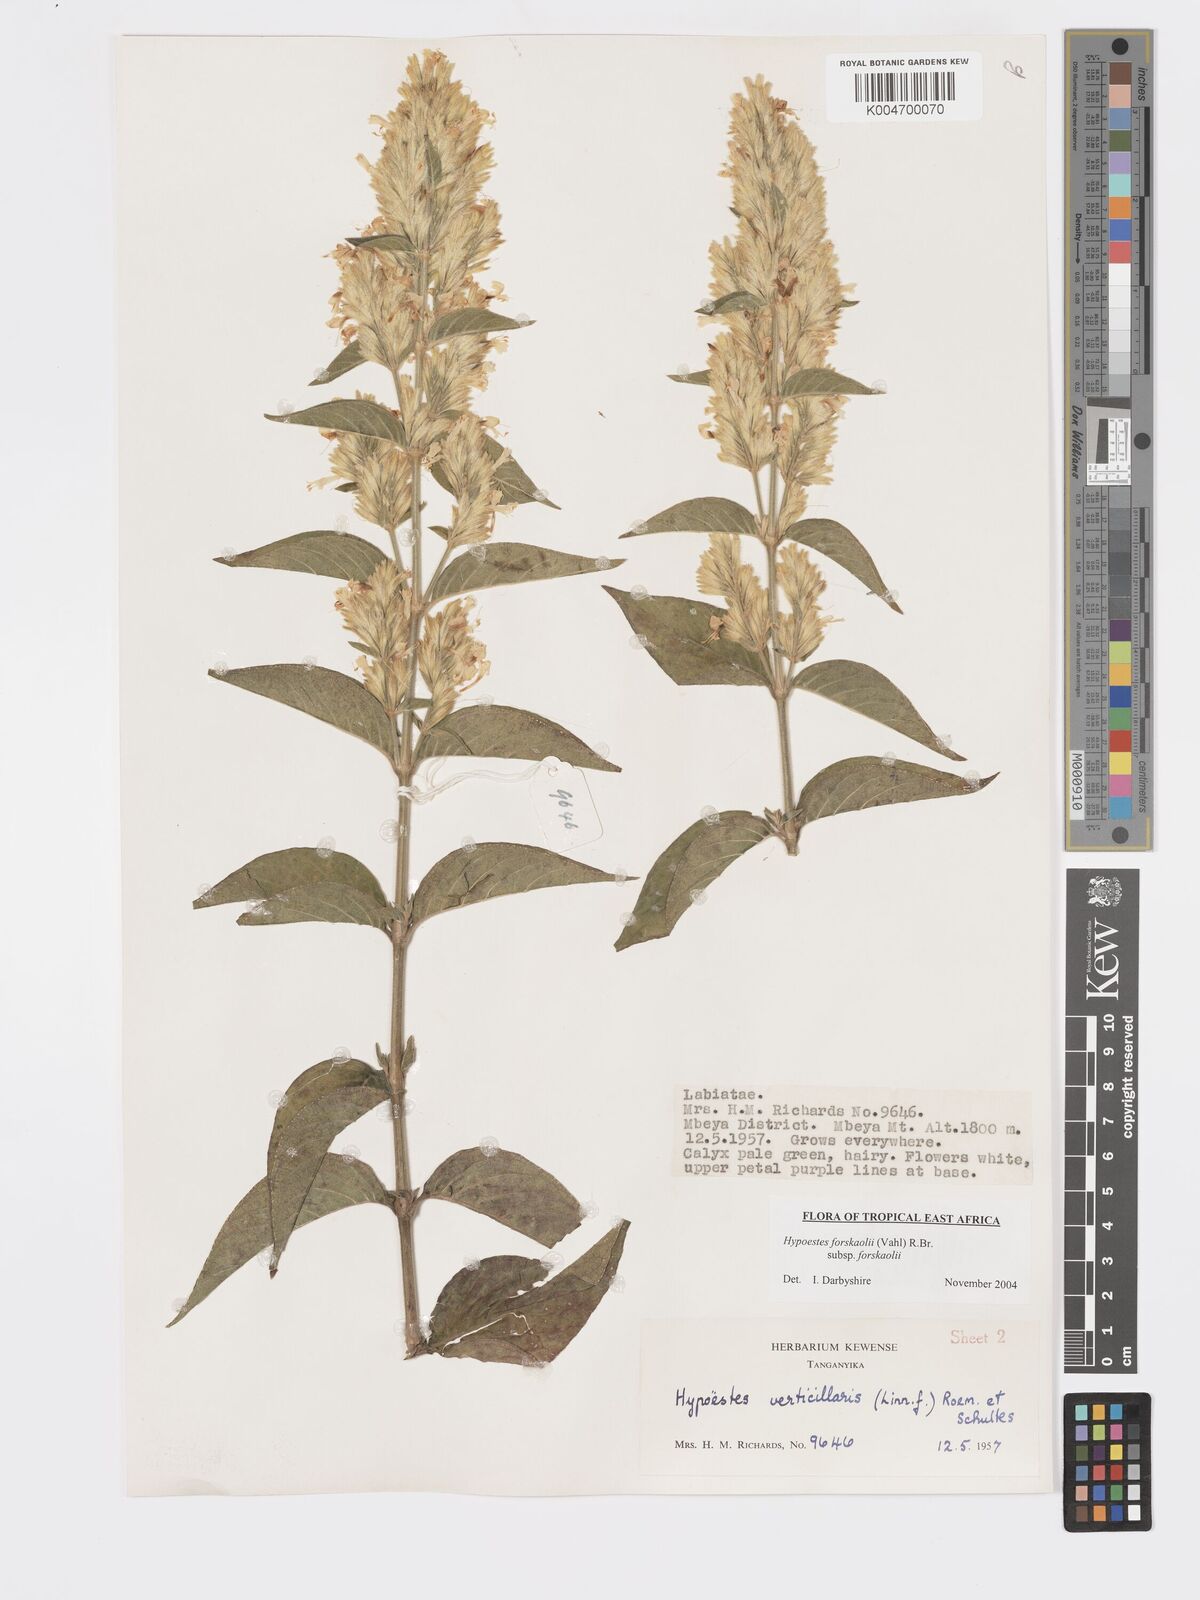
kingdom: Plantae
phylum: Tracheophyta
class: Magnoliopsida
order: Lamiales
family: Acanthaceae
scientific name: Acanthaceae
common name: Acanthaceae
